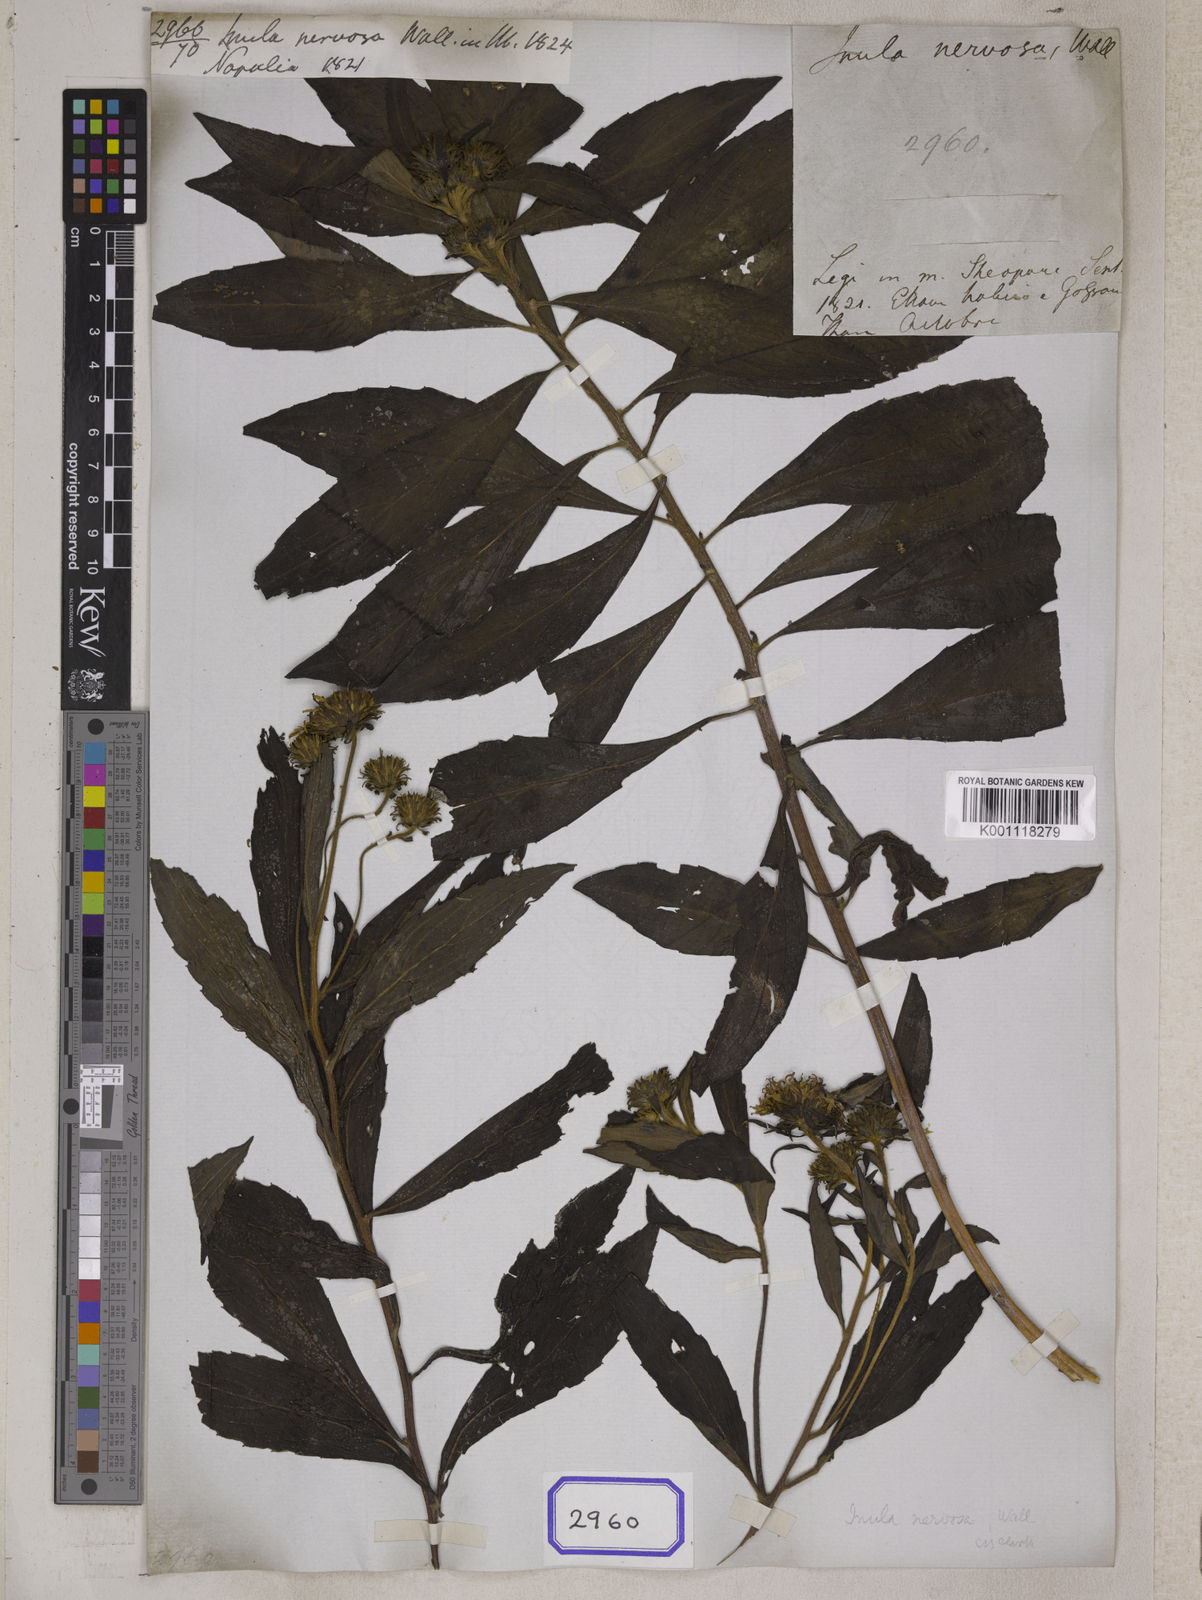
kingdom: Plantae
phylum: Tracheophyta
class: Magnoliopsida
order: Asterales
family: Asteraceae
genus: Duhaldea
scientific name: Duhaldea nervosa
